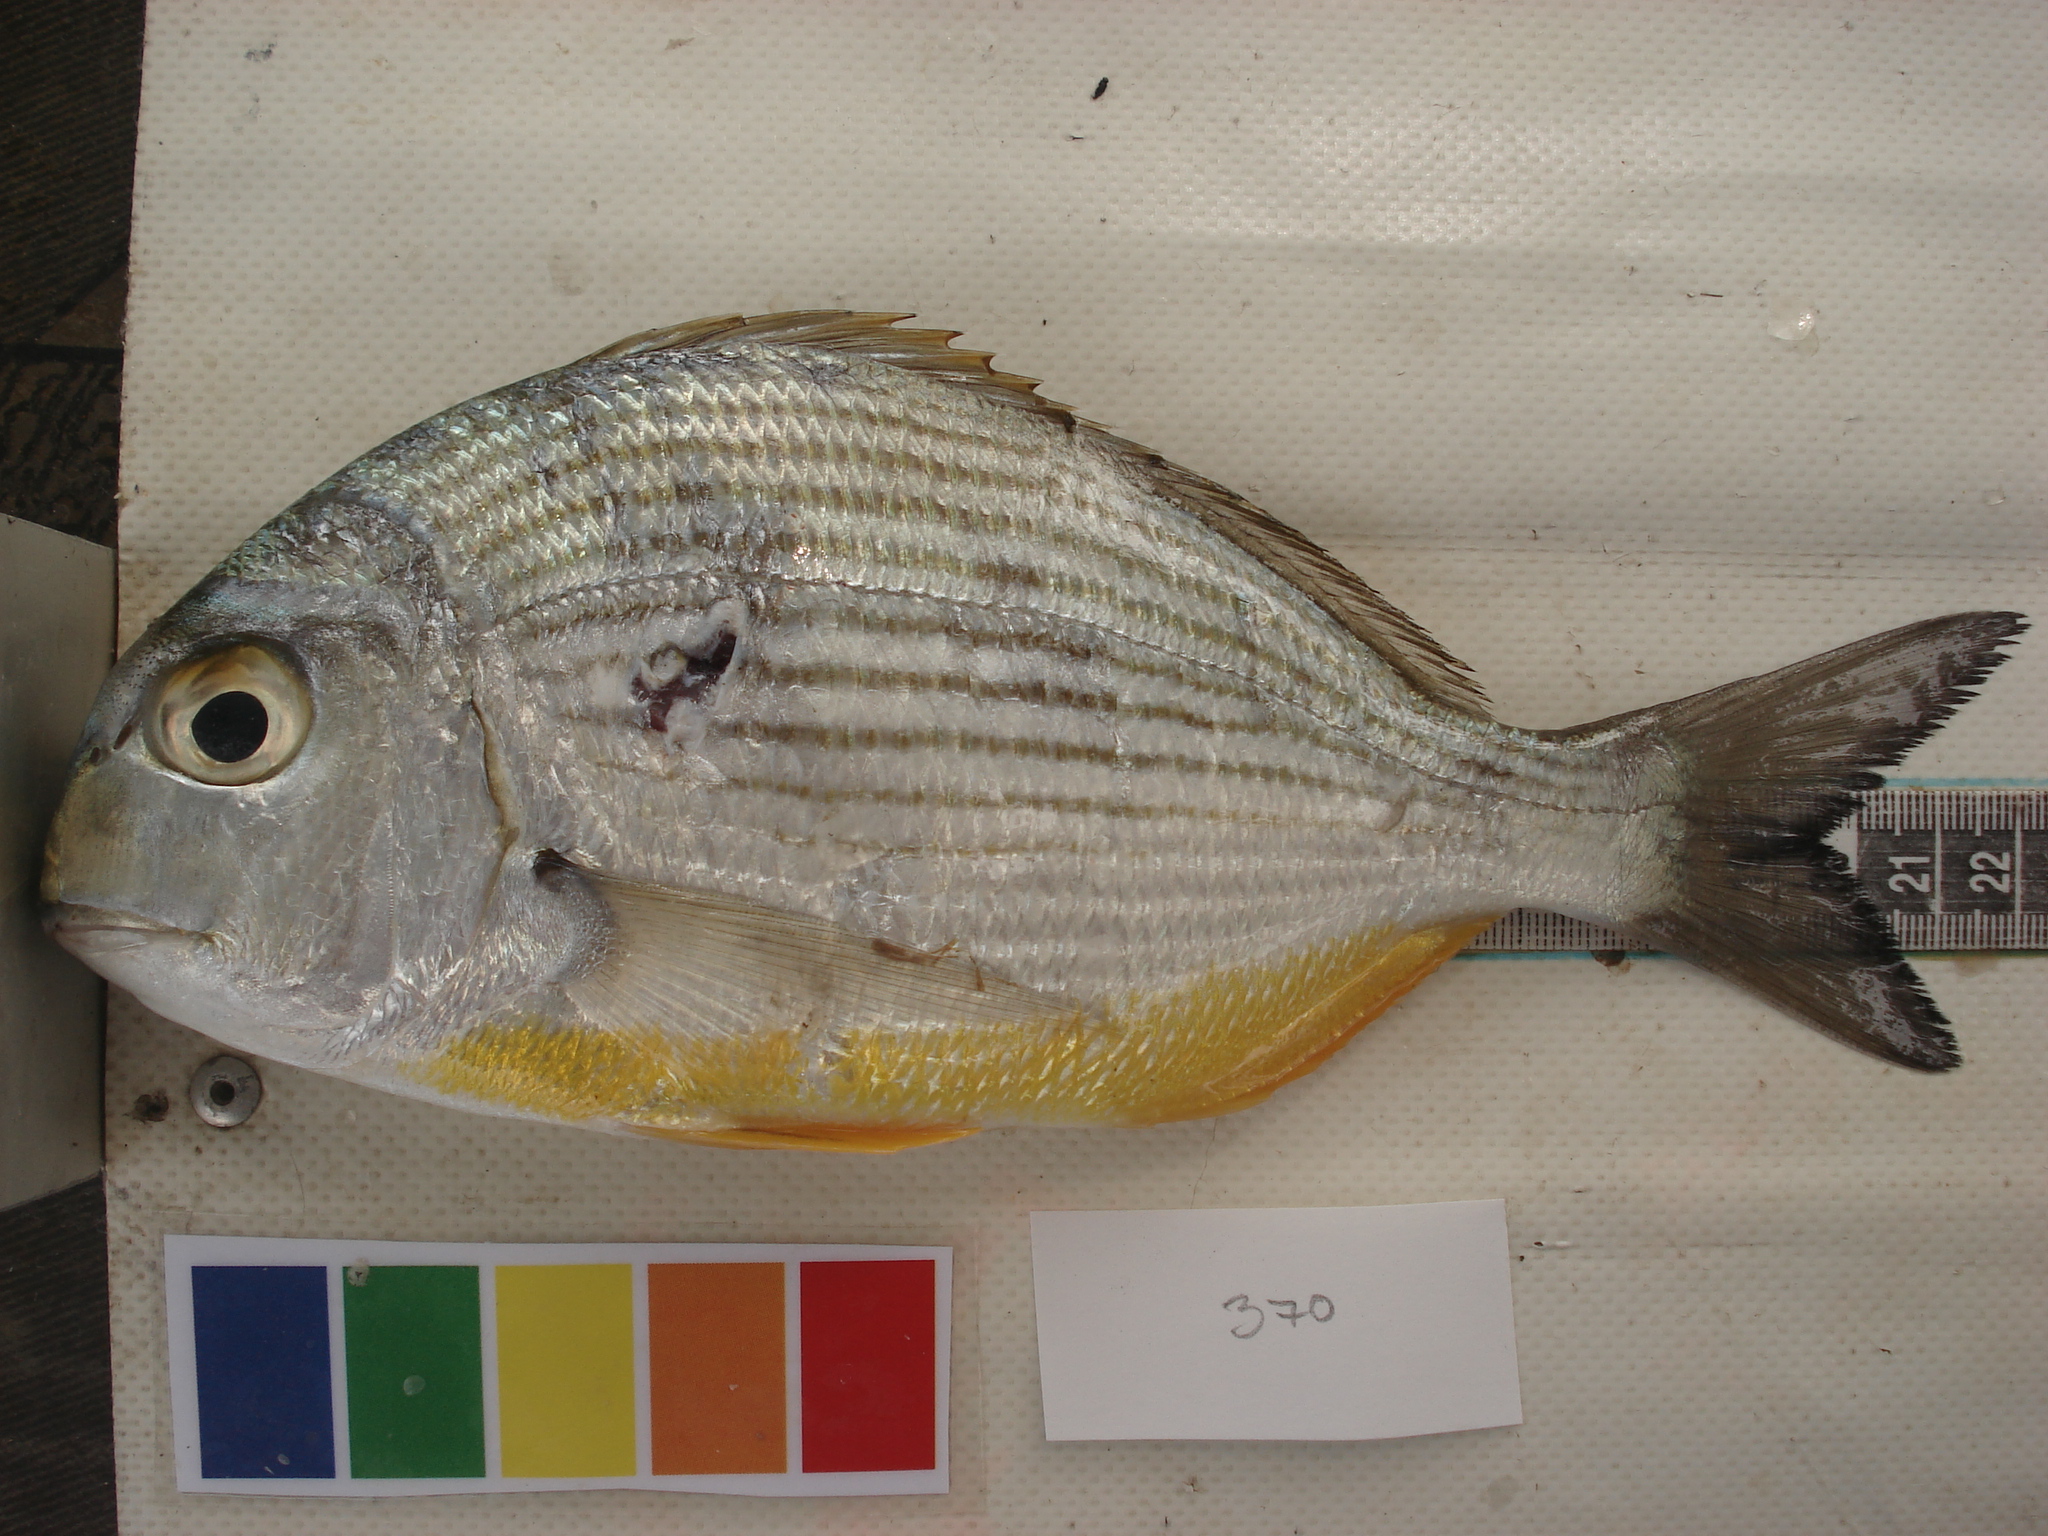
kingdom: Animalia
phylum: Chordata
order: Perciformes
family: Sparidae
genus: Rhabdosargus
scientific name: Rhabdosargus thorpei
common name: Bigeye stumpnose
